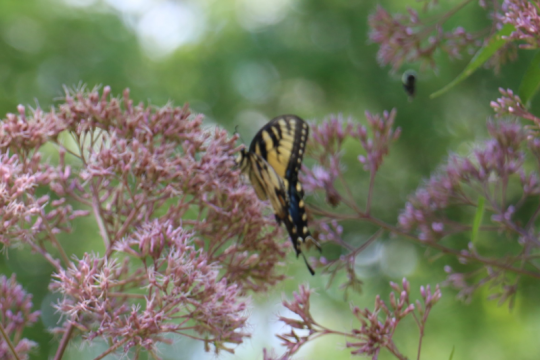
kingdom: Animalia
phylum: Arthropoda
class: Insecta
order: Lepidoptera
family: Papilionidae
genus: Pterourus
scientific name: Pterourus glaucus
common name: Eastern Tiger Swallowtail
